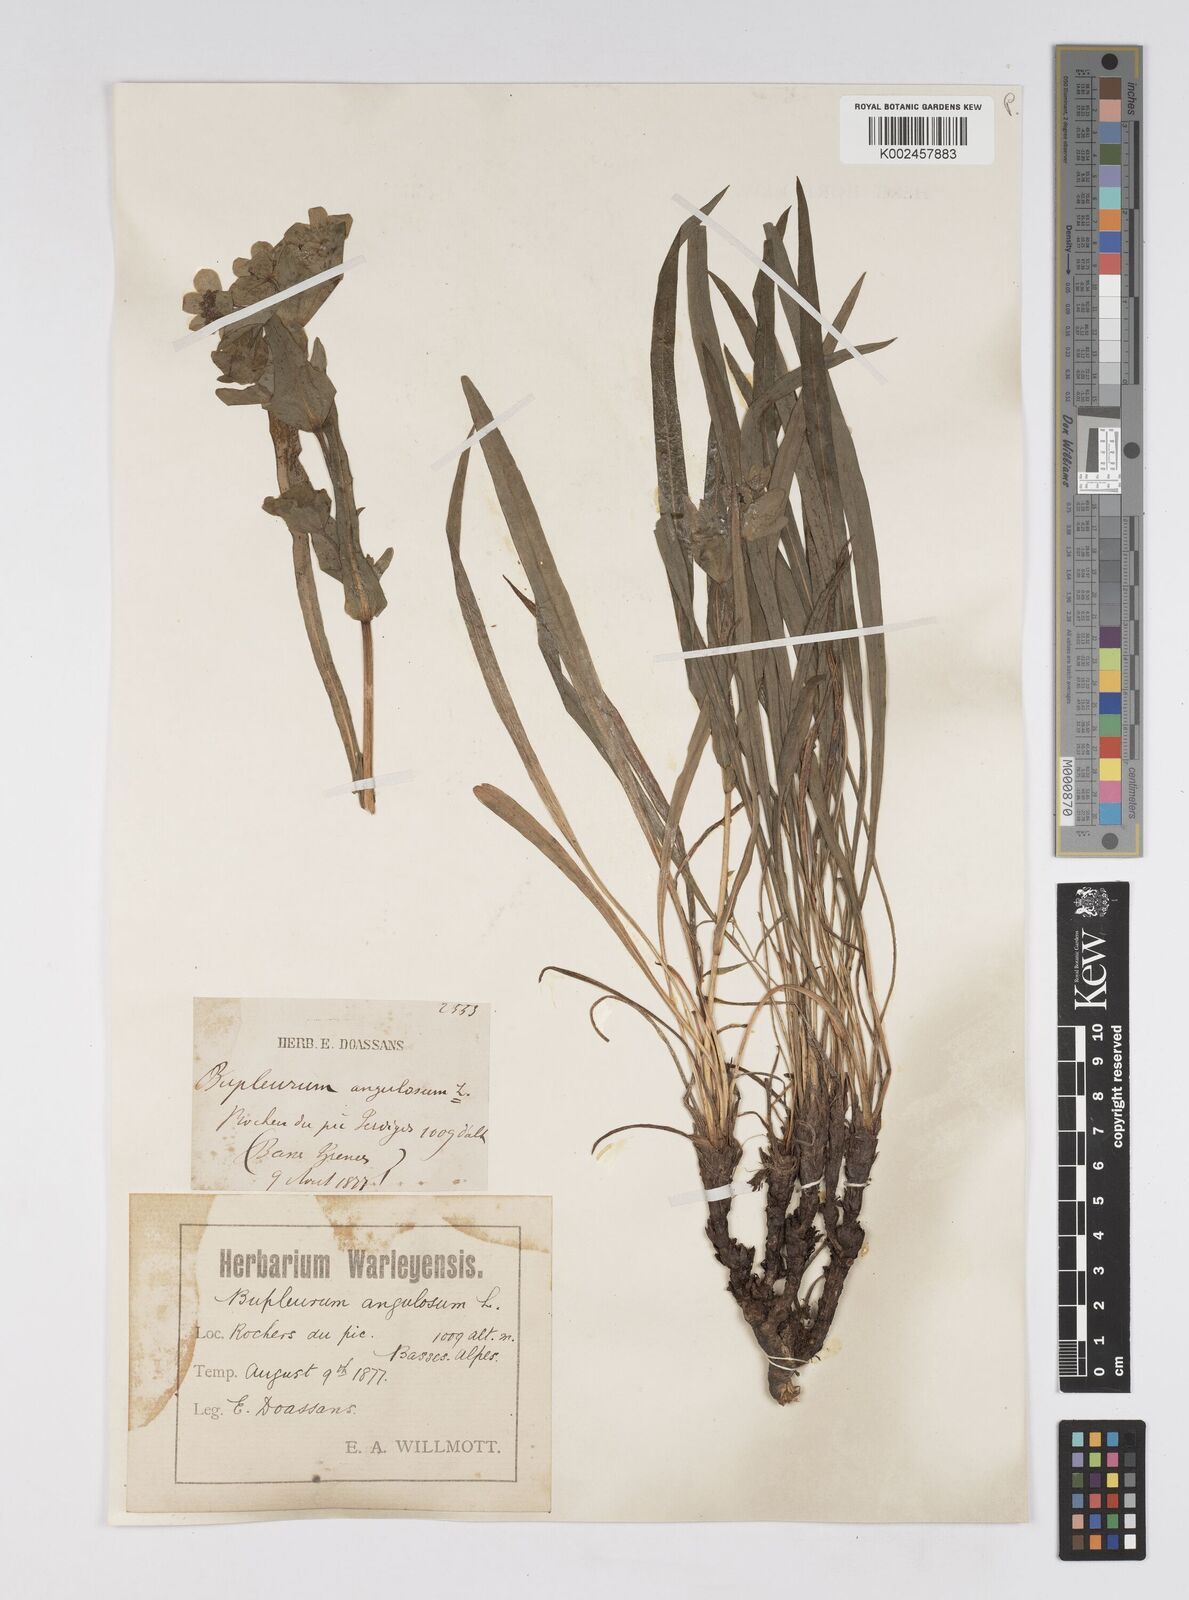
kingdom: Plantae
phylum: Tracheophyta
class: Magnoliopsida
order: Apiales
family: Apiaceae
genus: Bupleurum
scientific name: Bupleurum angulosum
